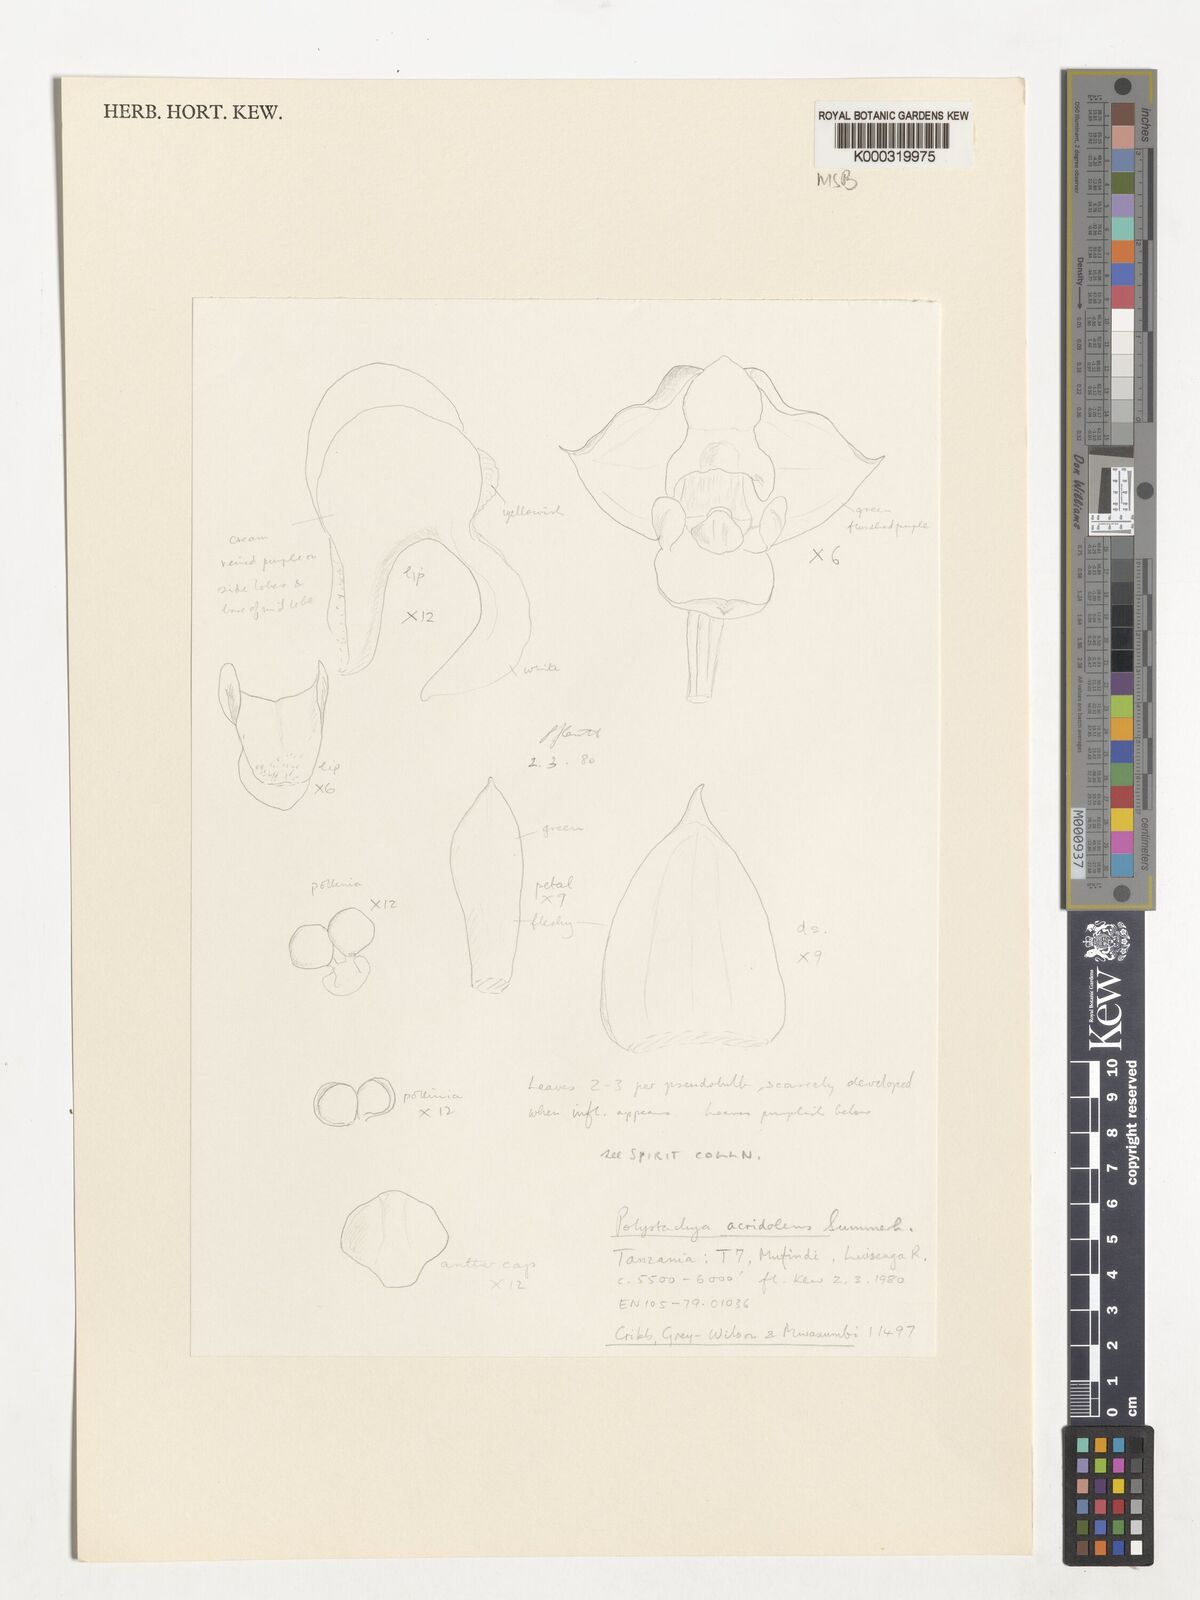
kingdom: Plantae
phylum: Tracheophyta
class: Liliopsida
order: Asparagales
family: Orchidaceae
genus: Polystachya
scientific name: Polystachya acridolens
